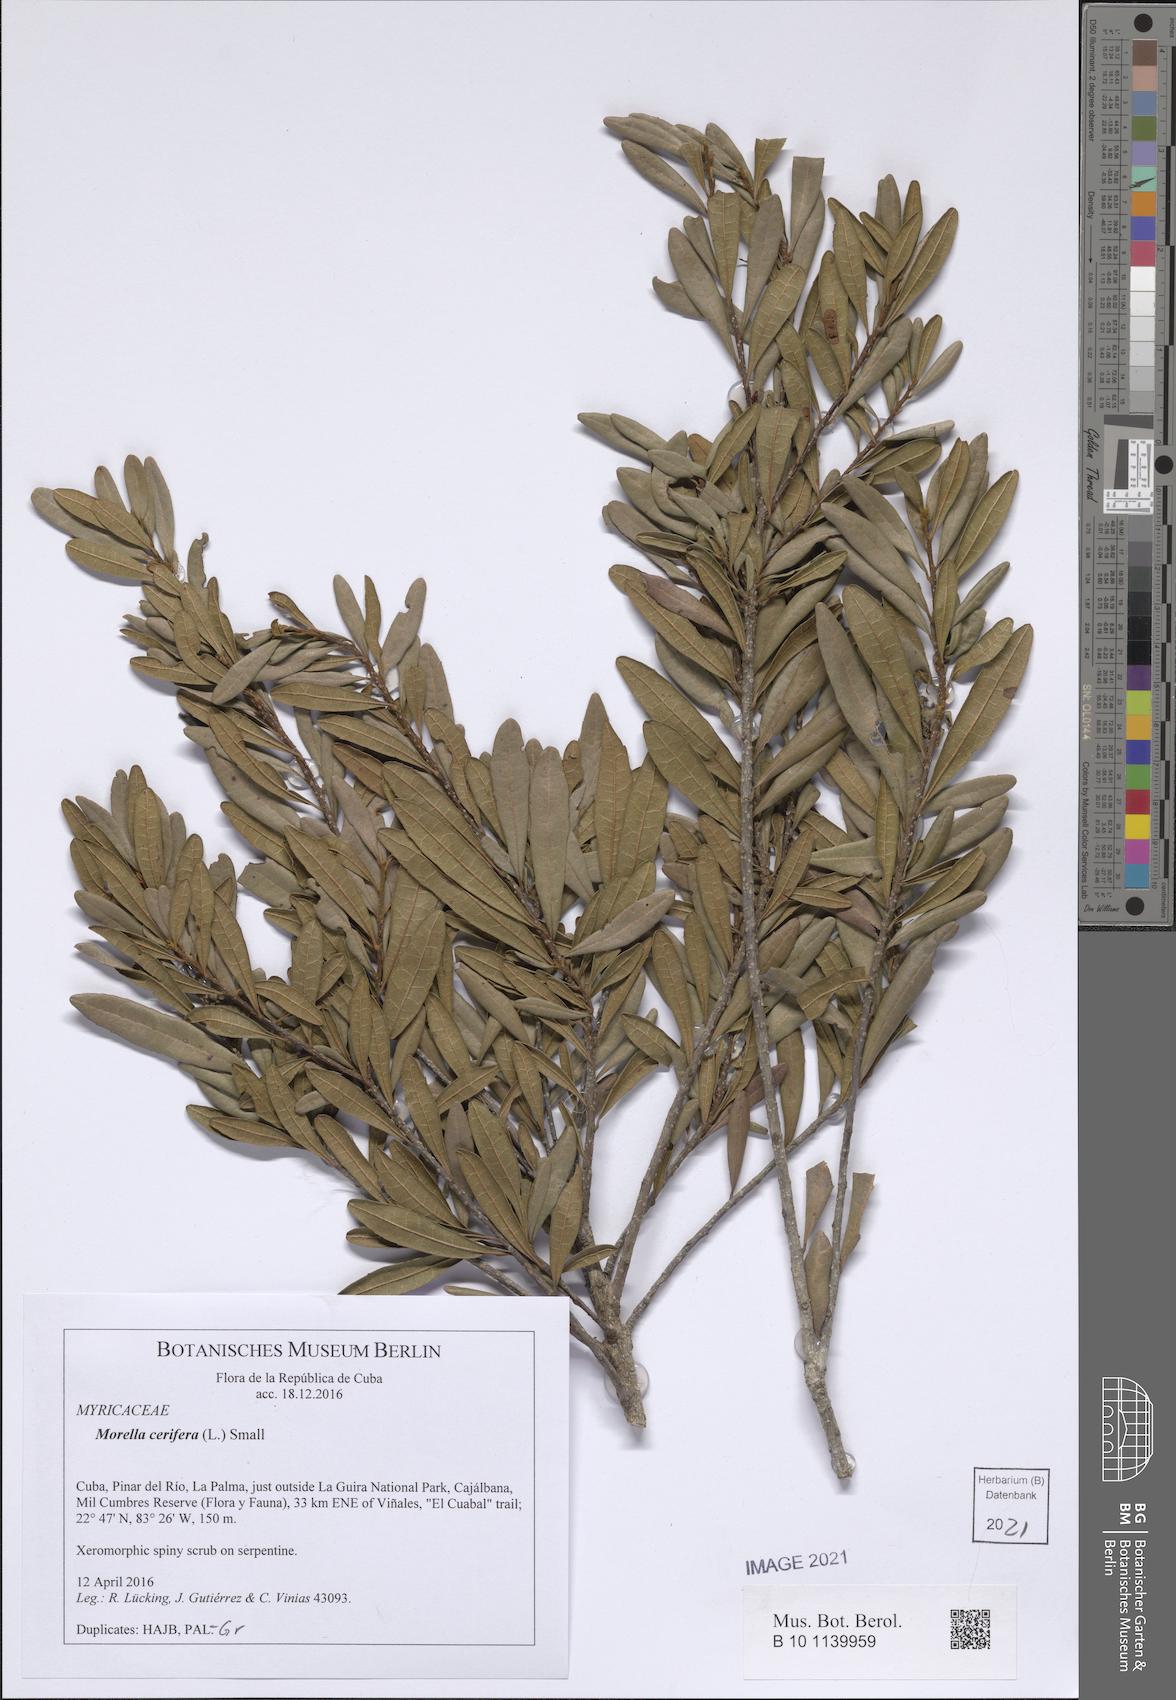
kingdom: Plantae
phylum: Tracheophyta
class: Magnoliopsida
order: Fagales
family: Myricaceae
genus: Morella
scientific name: Morella cerifera
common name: Wax myrtle
